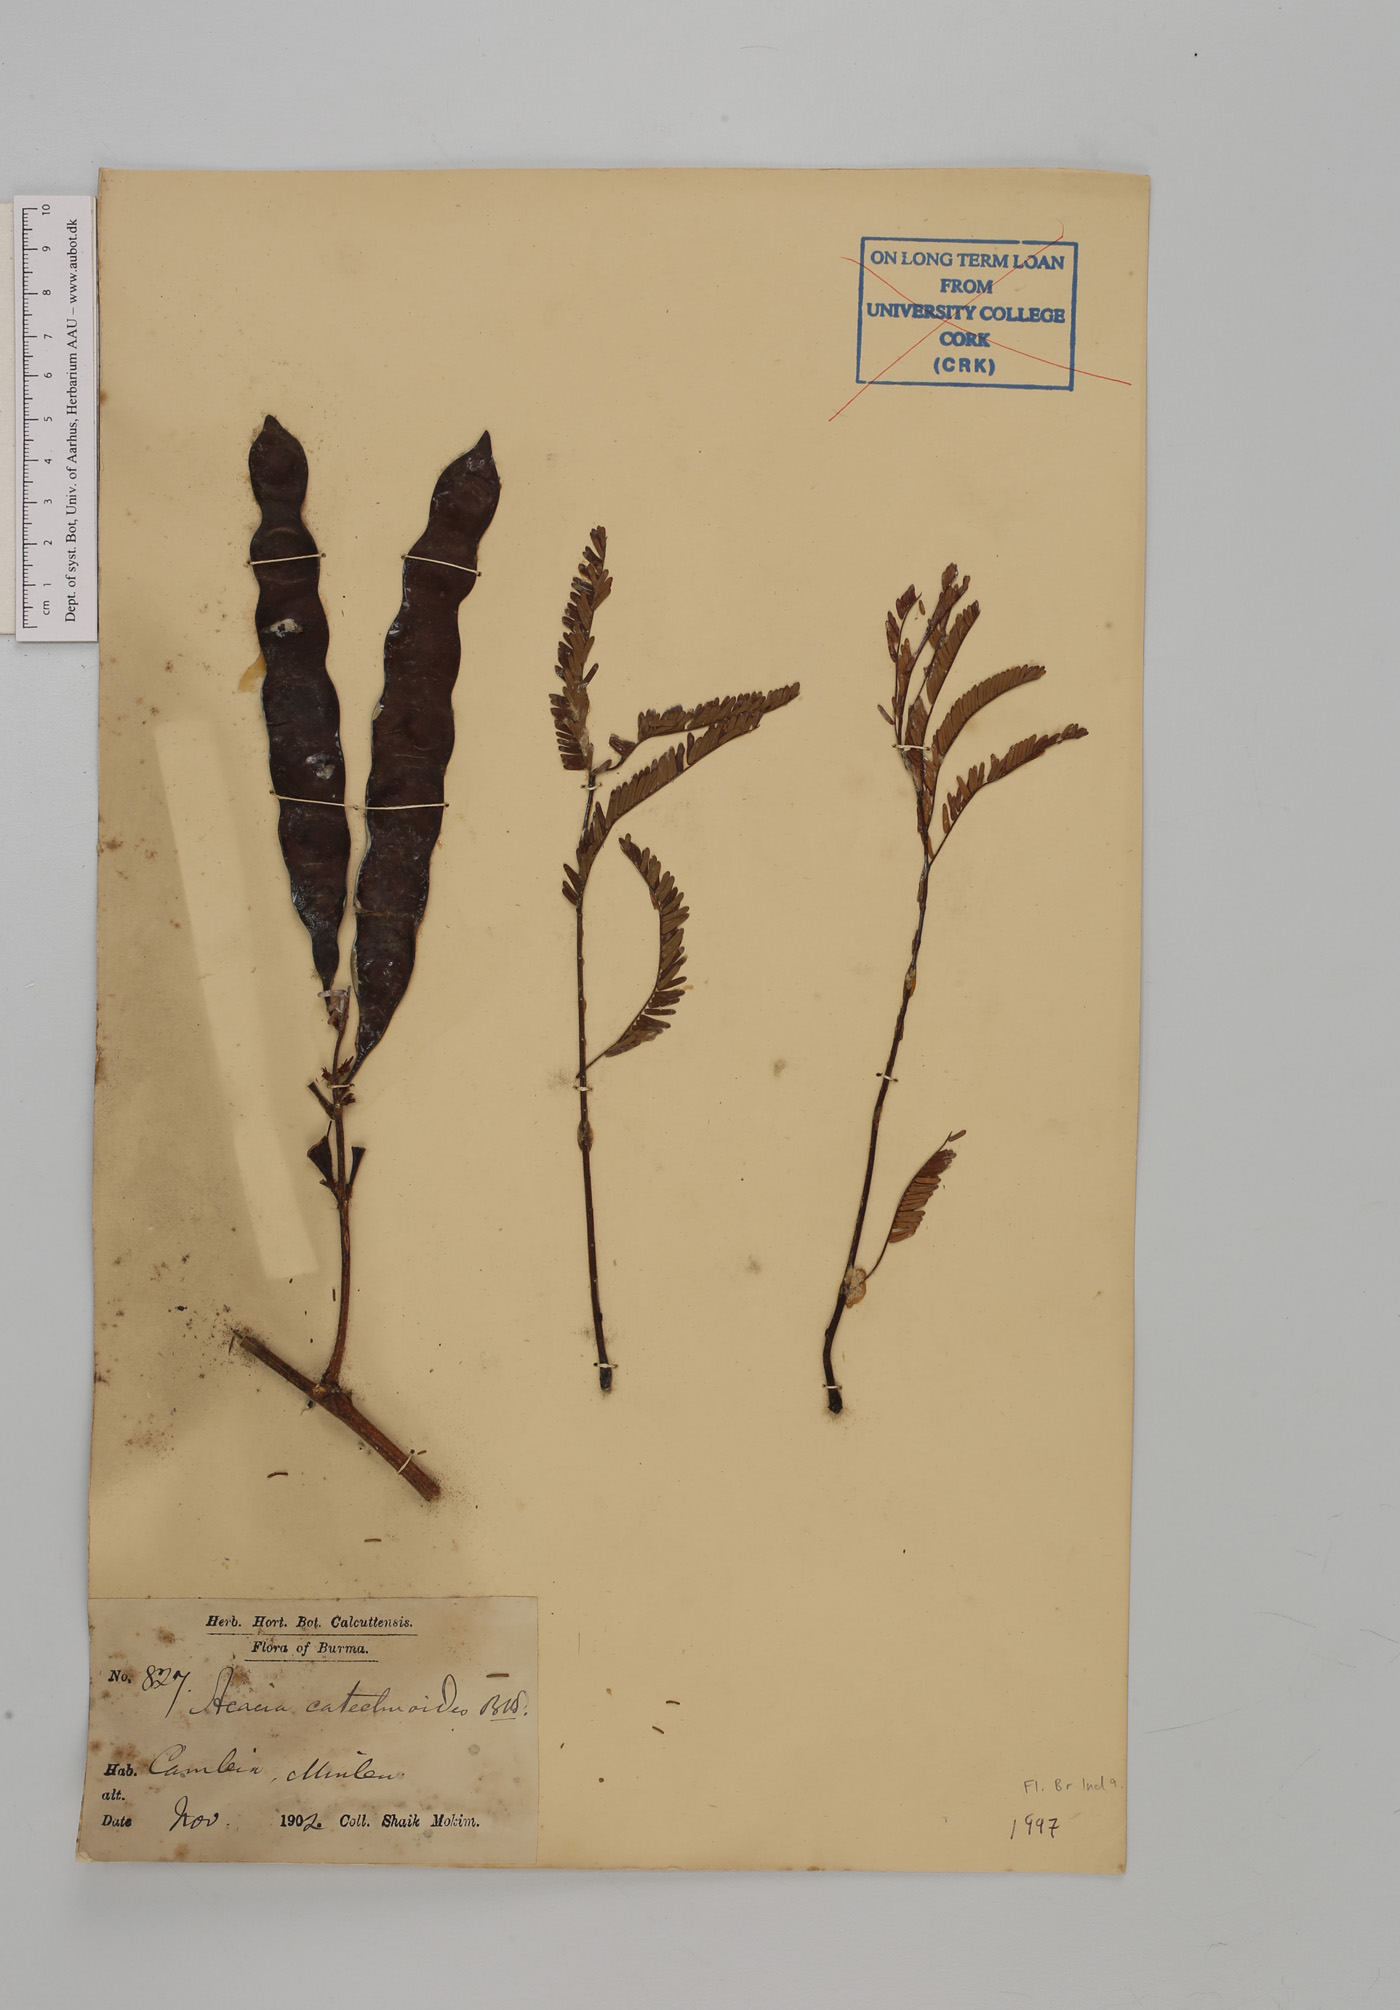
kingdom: Plantae
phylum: Tracheophyta
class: Magnoliopsida
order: Fabales
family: Fabaceae
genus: Senegalia
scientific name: Senegalia catechu
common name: Black cutch
